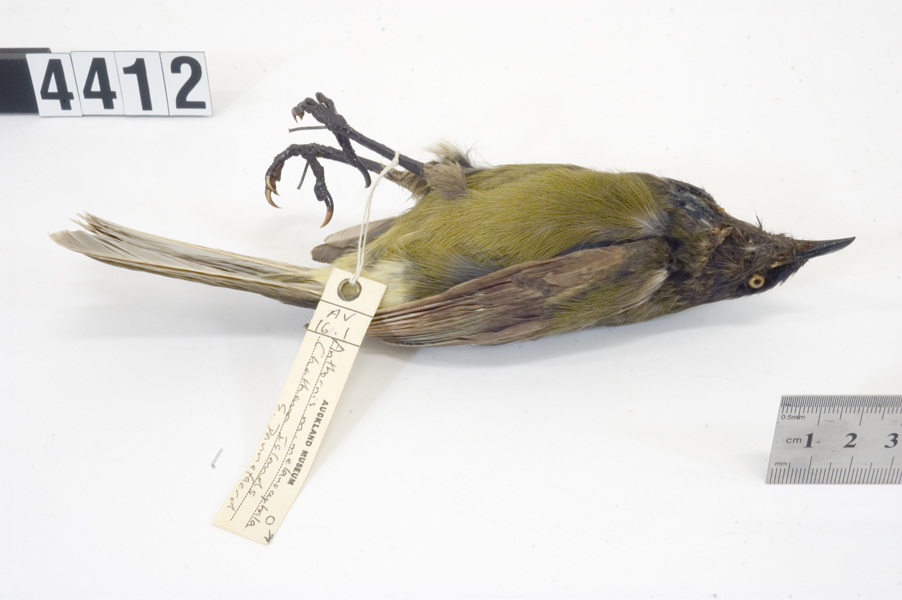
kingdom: Animalia
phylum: Chordata
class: Aves
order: Passeriformes
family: Meliphagidae
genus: Anthornis
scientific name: Anthornis melanocephala
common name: Chatham bellbird
